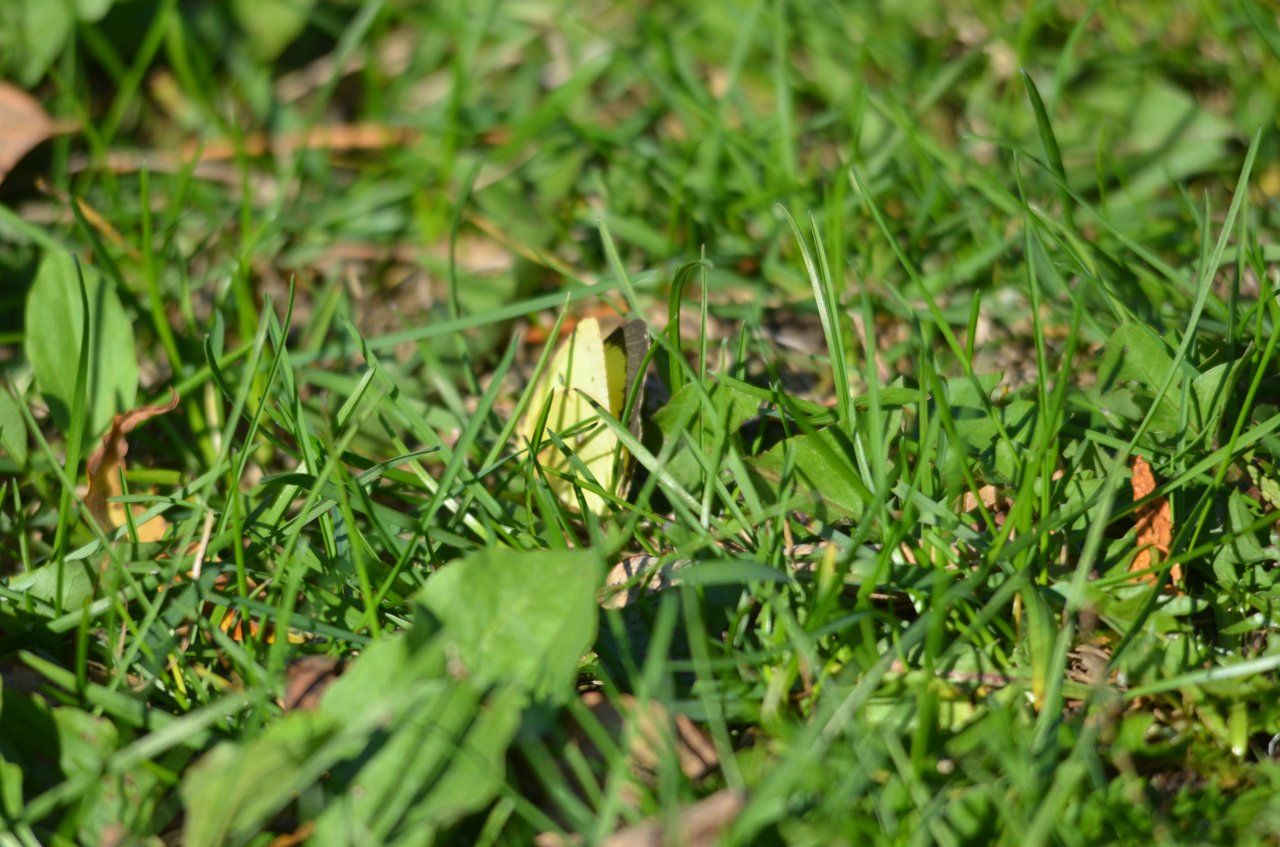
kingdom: Animalia
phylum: Arthropoda
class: Insecta
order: Lepidoptera
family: Pieridae
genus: Colias
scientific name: Colias philodice
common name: Clouded Sulphur
